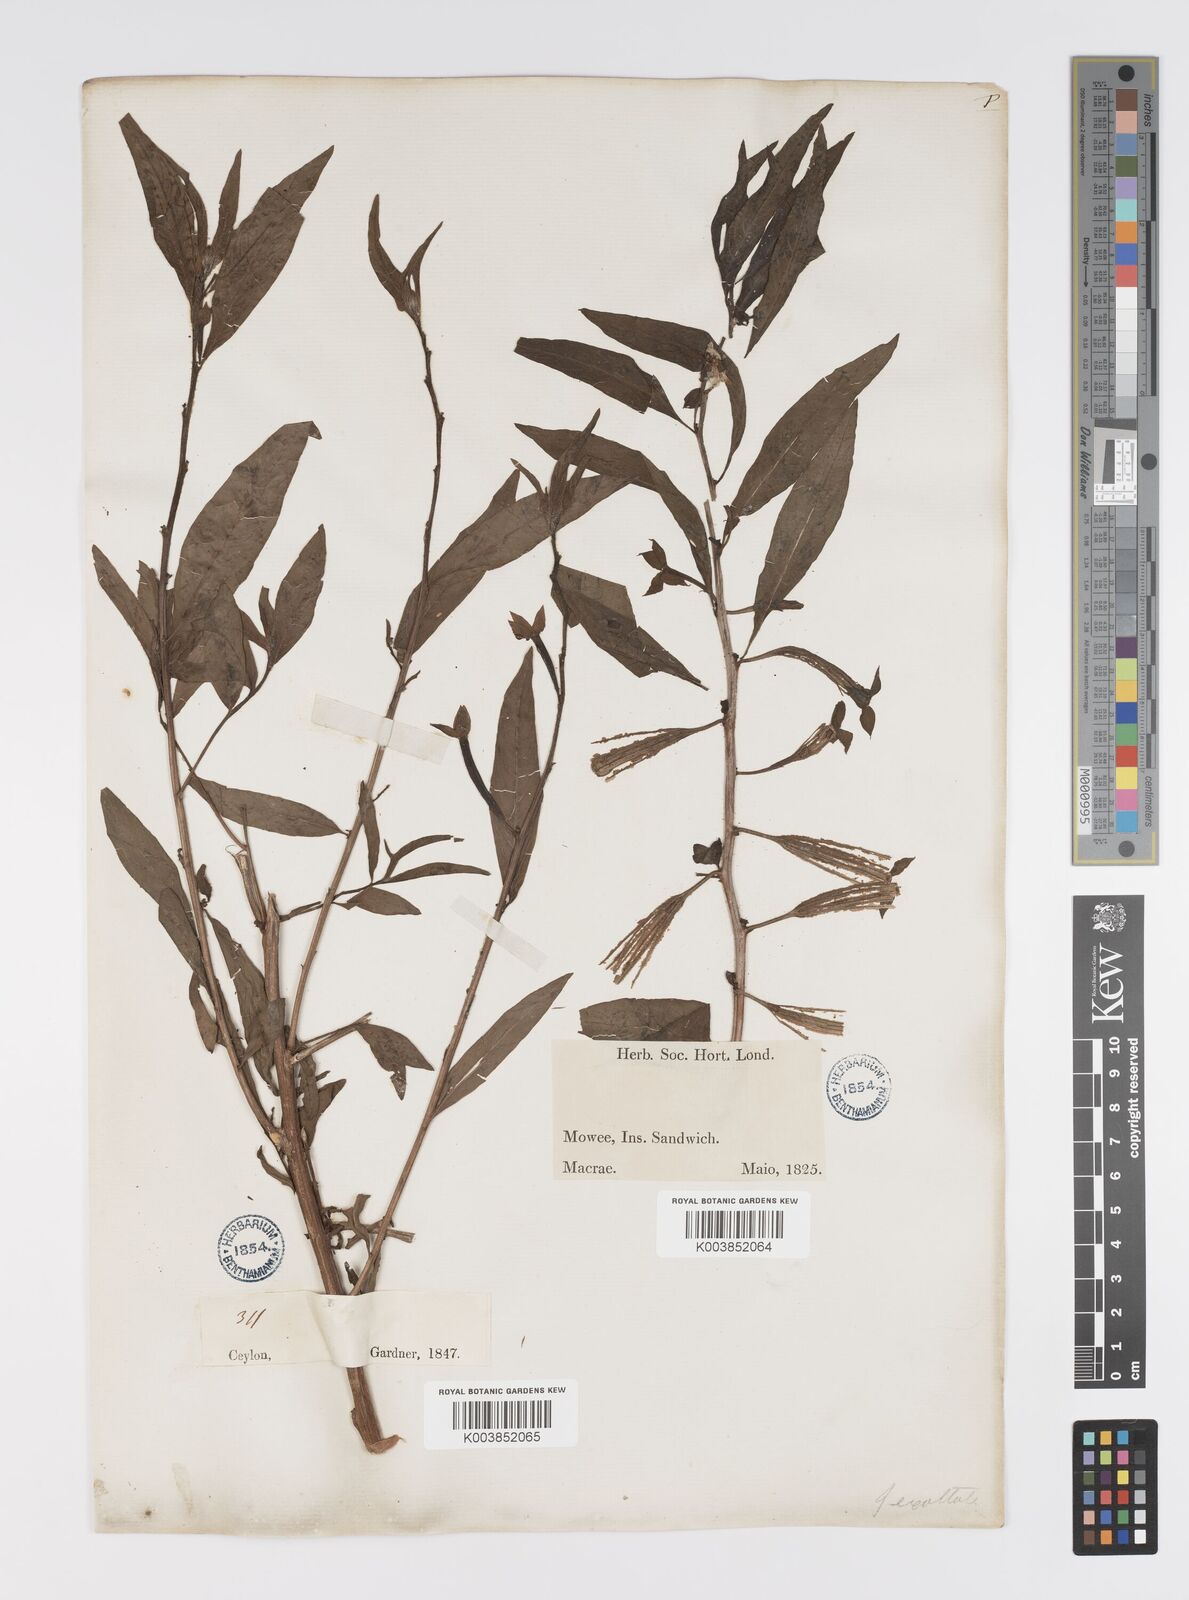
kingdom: Plantae
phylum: Tracheophyta
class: Magnoliopsida
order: Myrtales
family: Onagraceae
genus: Ludwigia
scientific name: Ludwigia octovalvis
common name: Water-primrose
